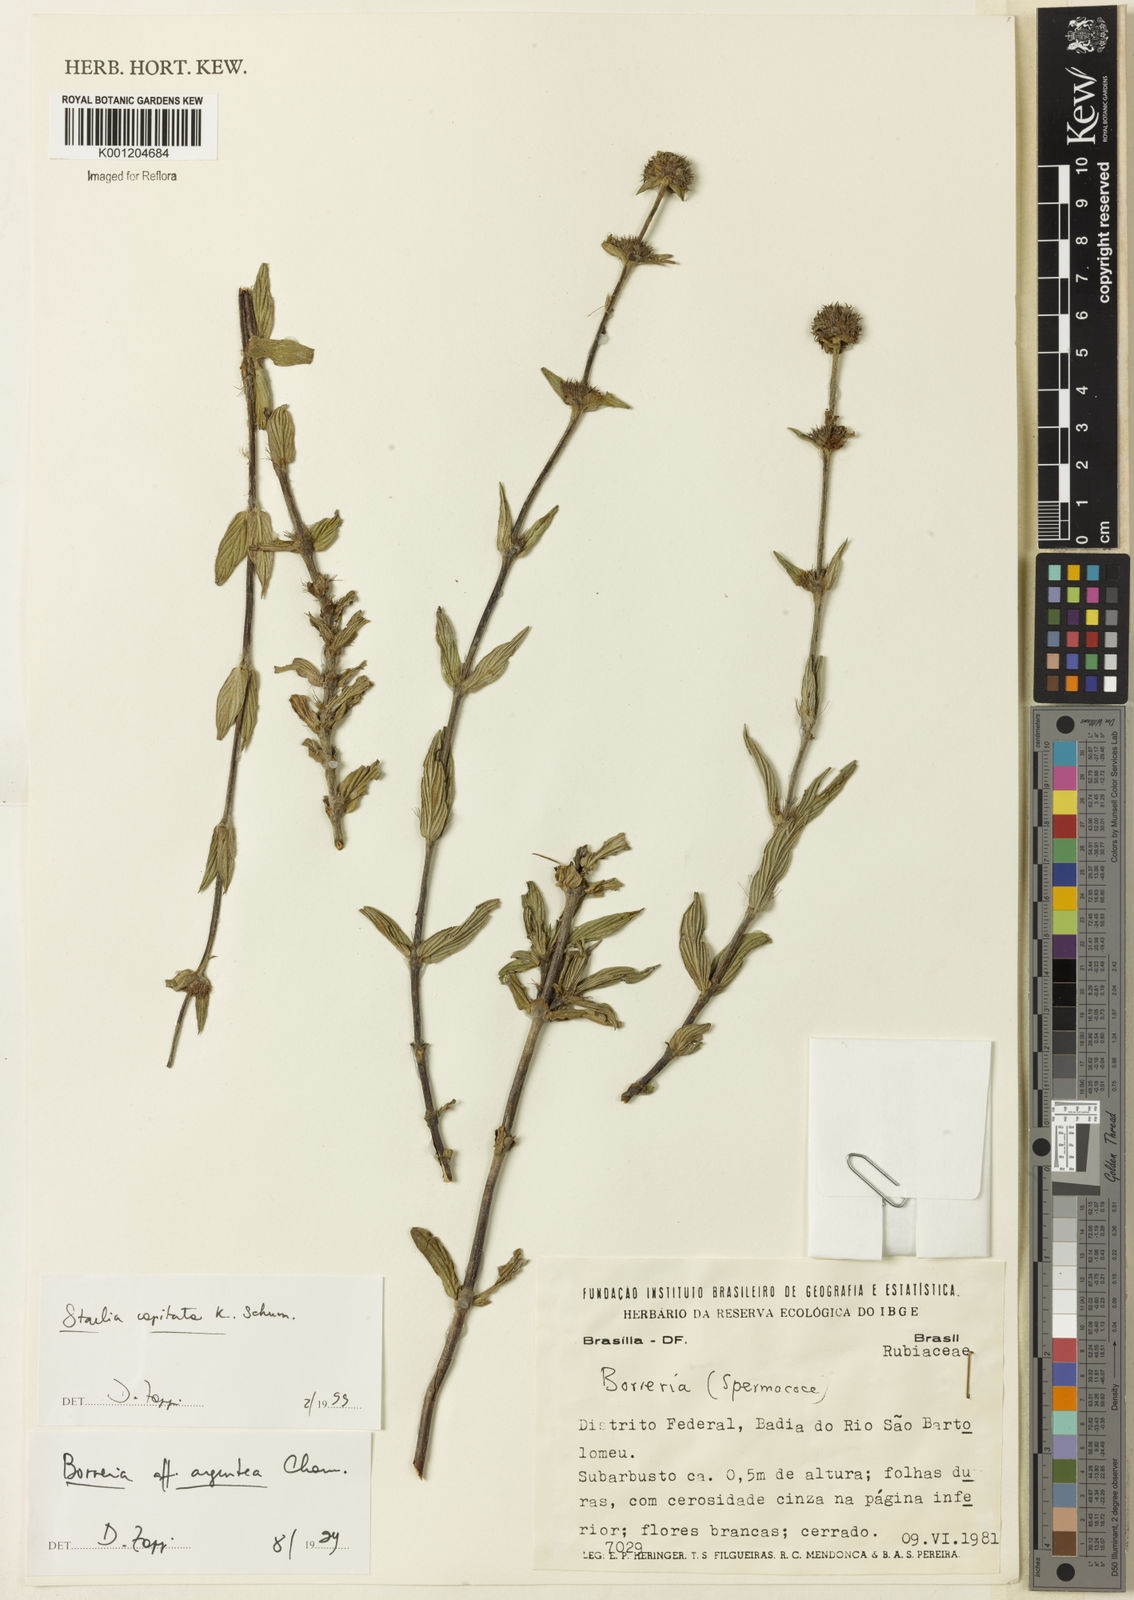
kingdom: Plantae
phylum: Tracheophyta
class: Magnoliopsida
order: Gentianales
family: Rubiaceae
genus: Planaltina
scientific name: Planaltina capitata
